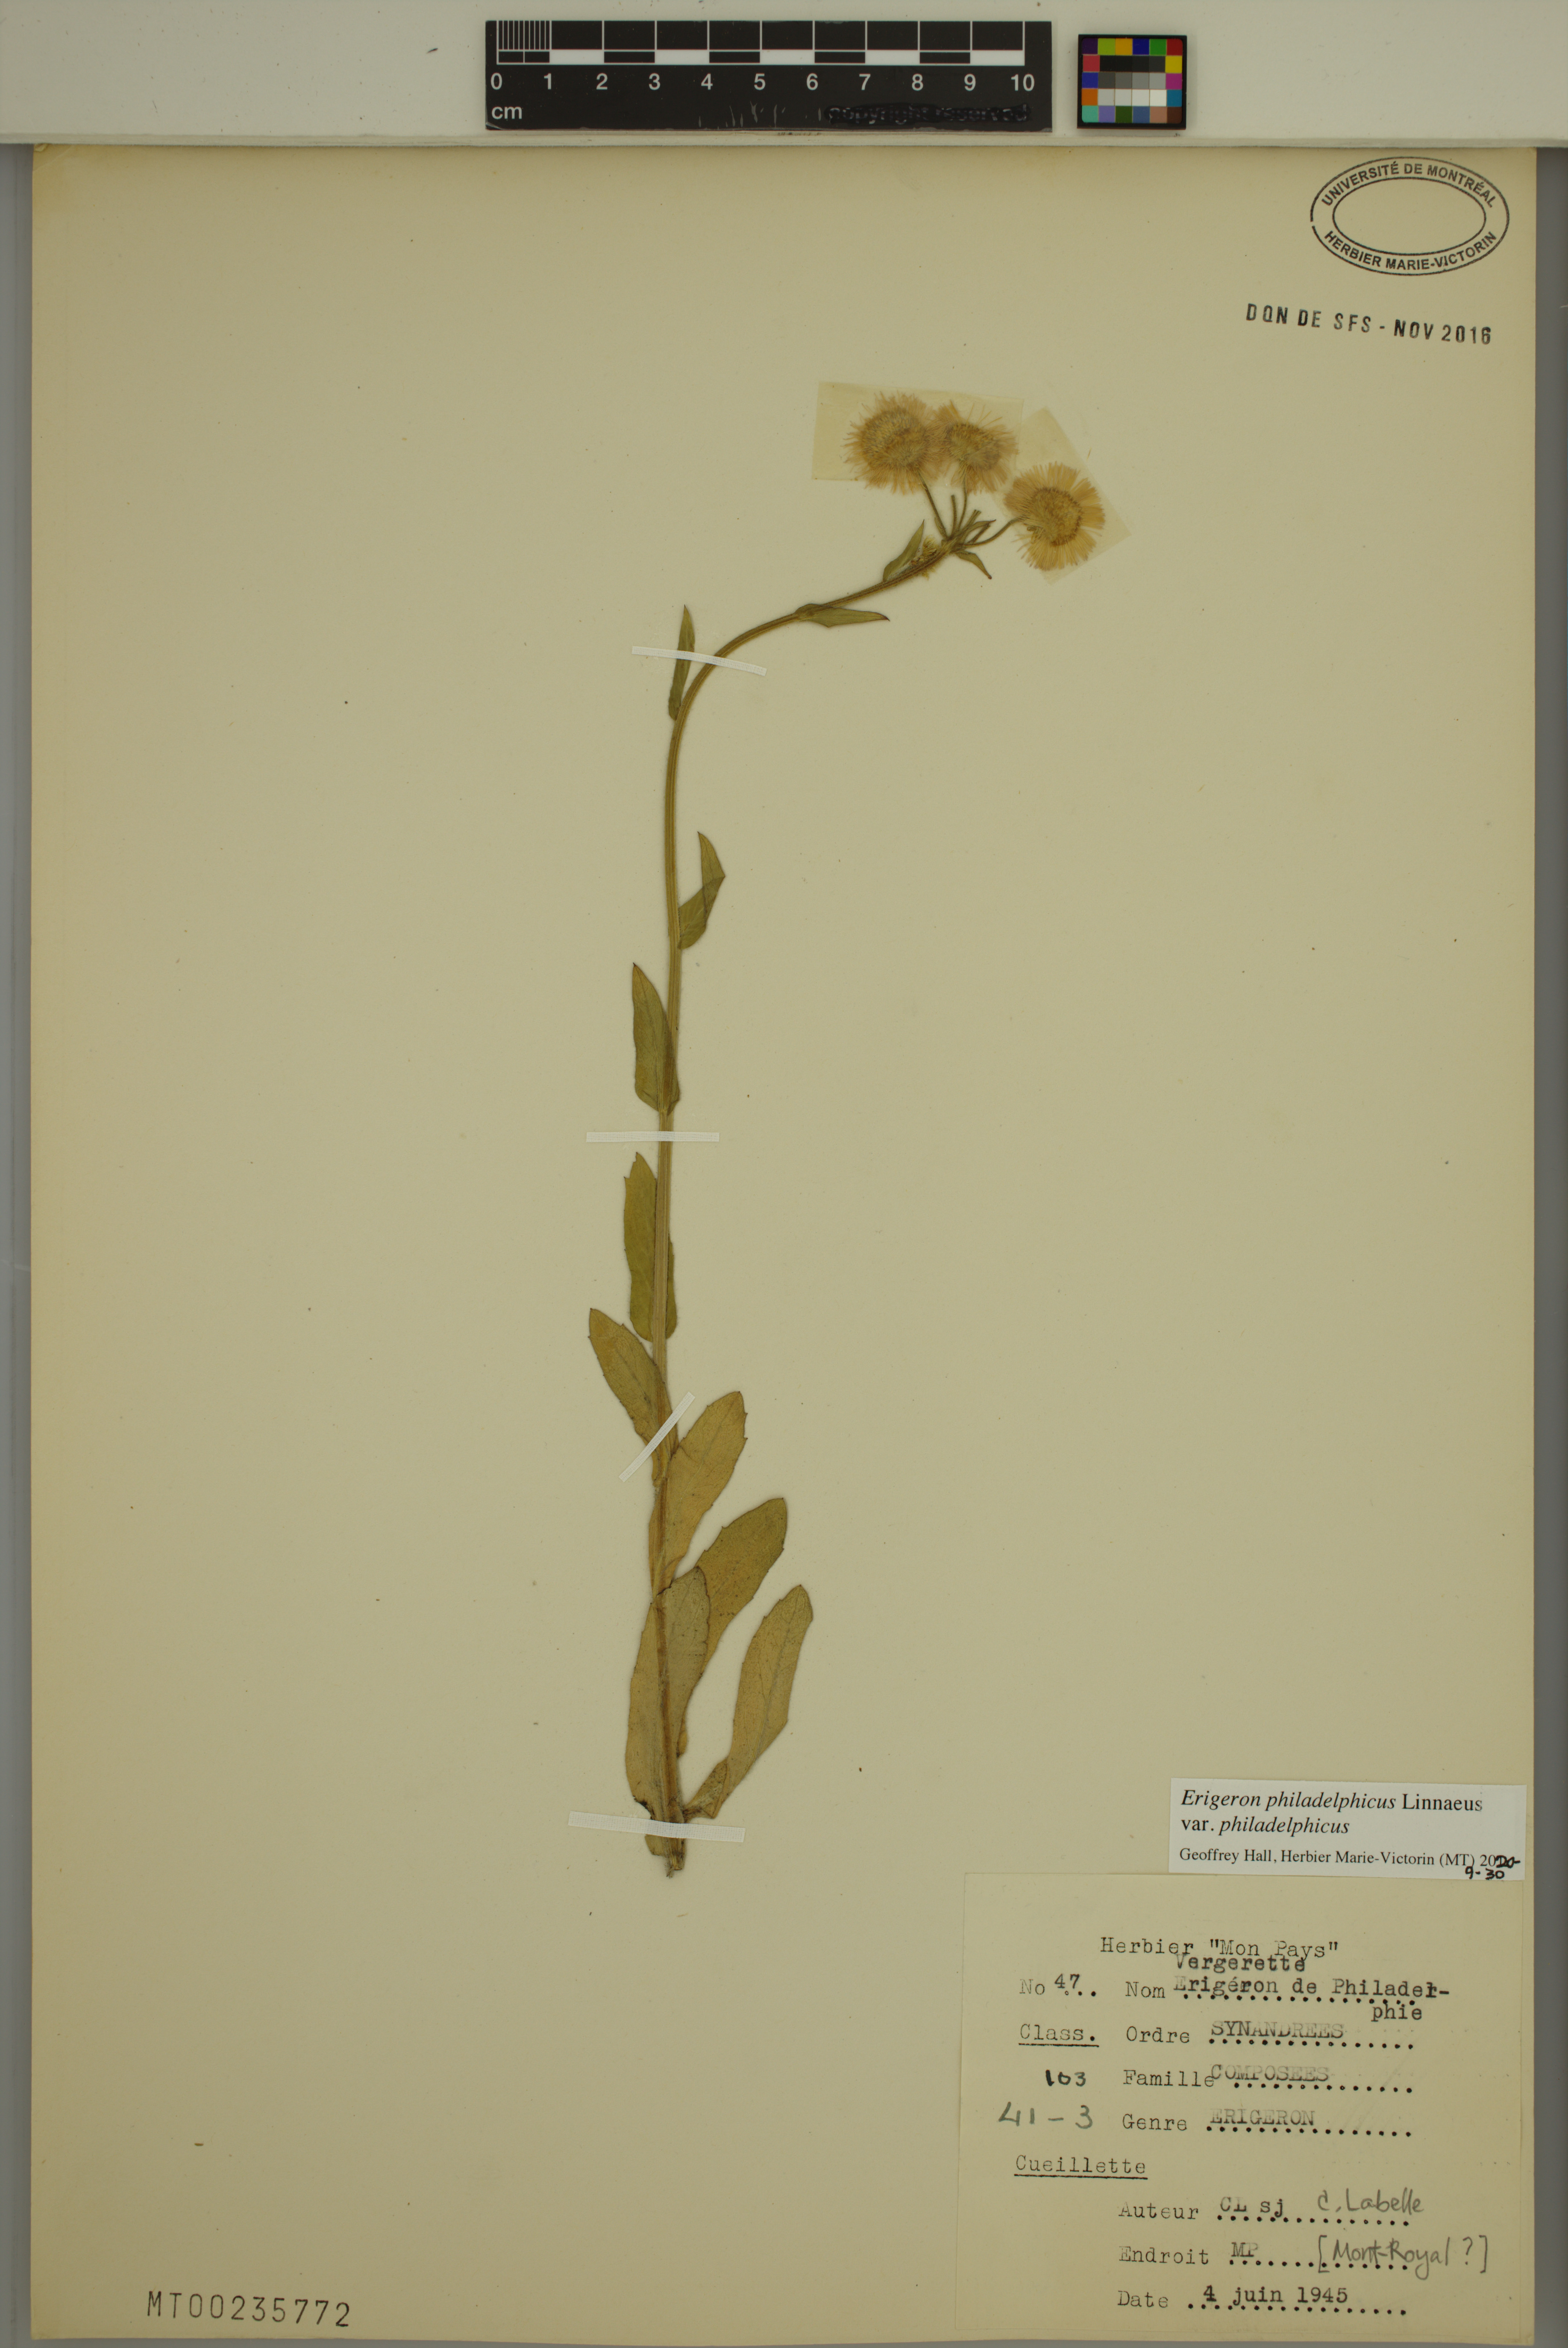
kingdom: Plantae
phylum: Tracheophyta
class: Magnoliopsida
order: Asterales
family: Asteraceae
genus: Erigeron
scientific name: Erigeron philadelphicus
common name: Robin's-plantain
